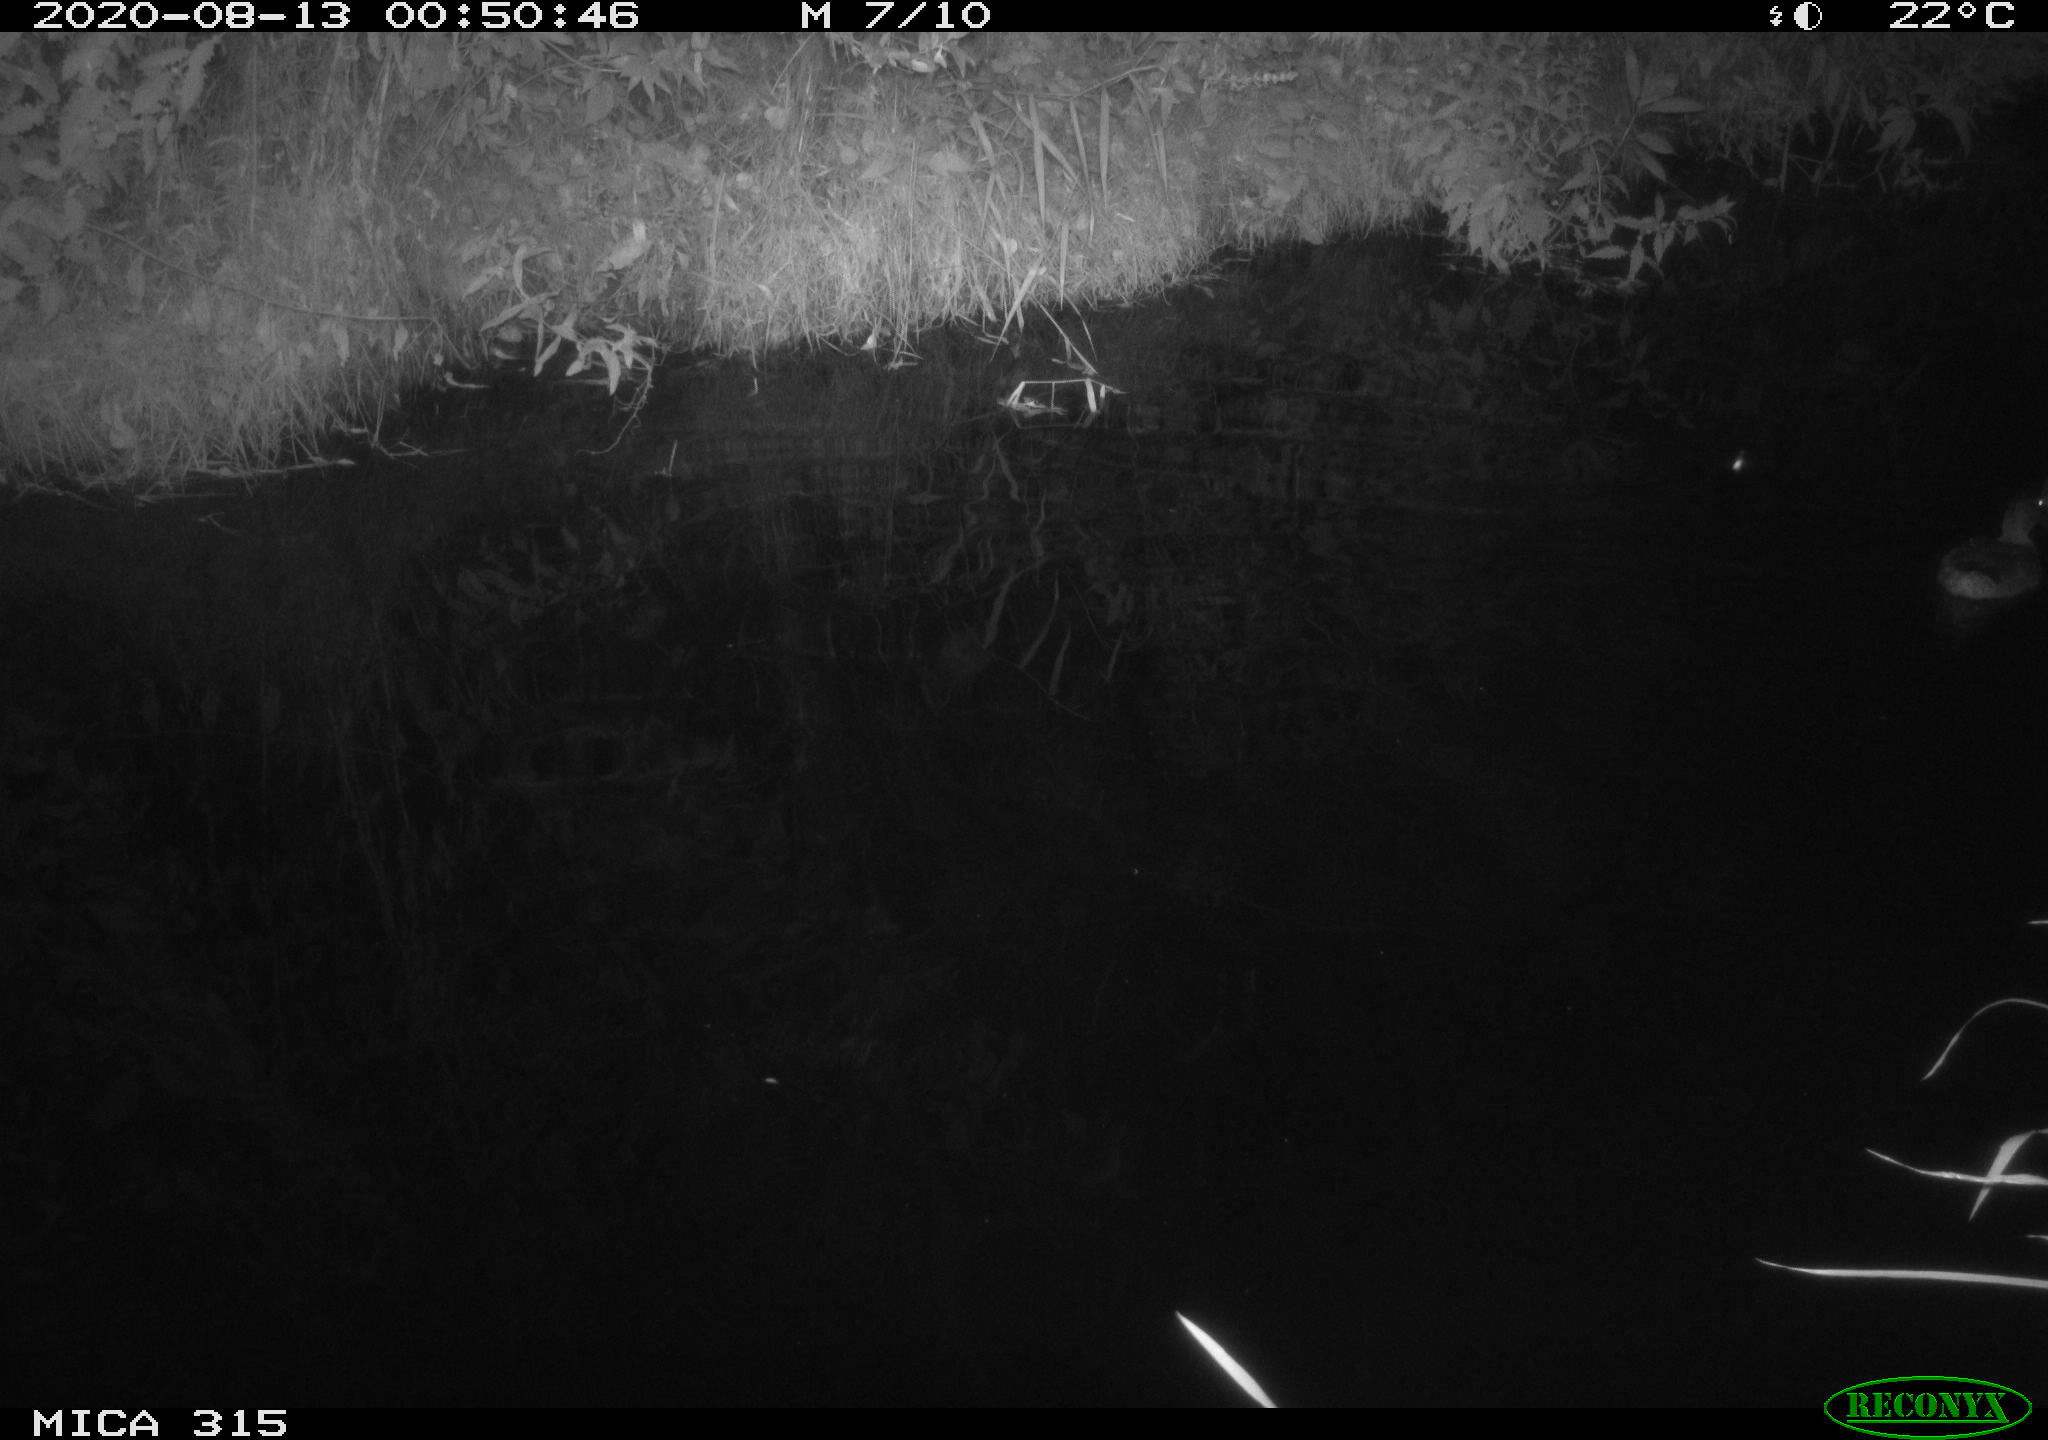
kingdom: Animalia
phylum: Chordata
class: Aves
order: Anseriformes
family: Anatidae
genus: Anas
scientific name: Anas platyrhynchos
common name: Mallard
